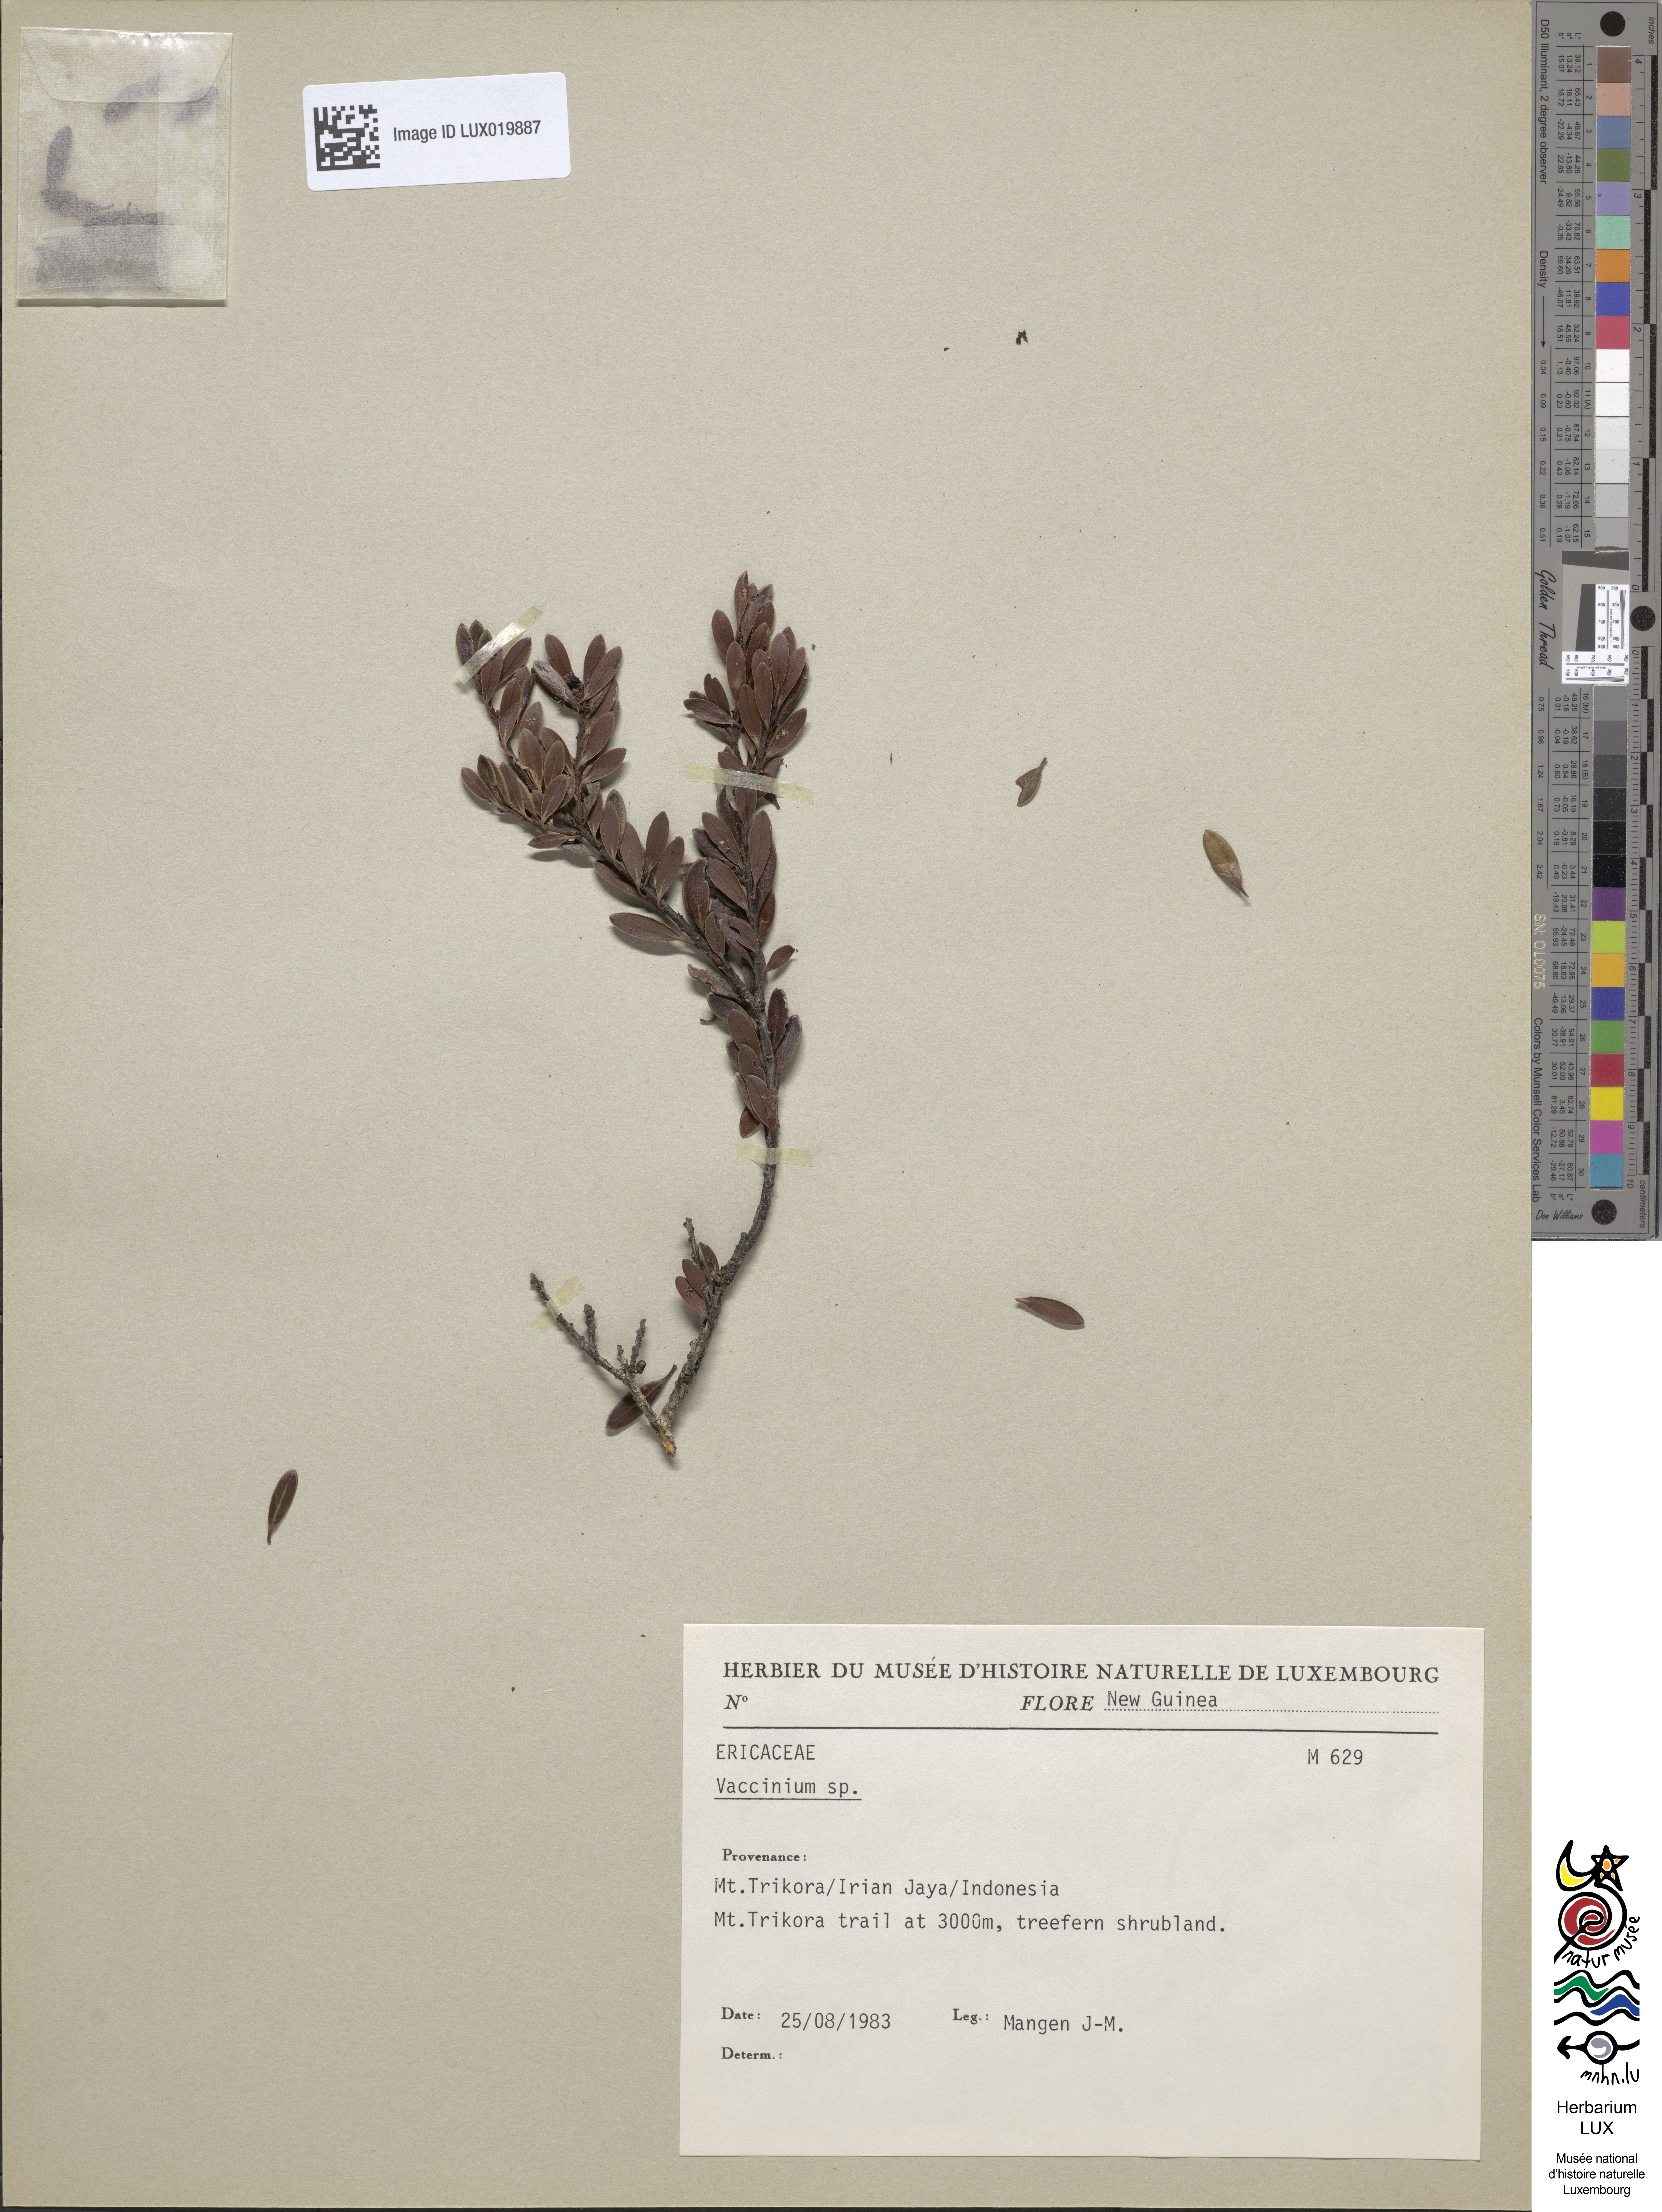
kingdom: Plantae
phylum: Tracheophyta
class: Magnoliopsida
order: Ericales
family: Ericaceae
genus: Vaccinium
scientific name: Vaccinium
